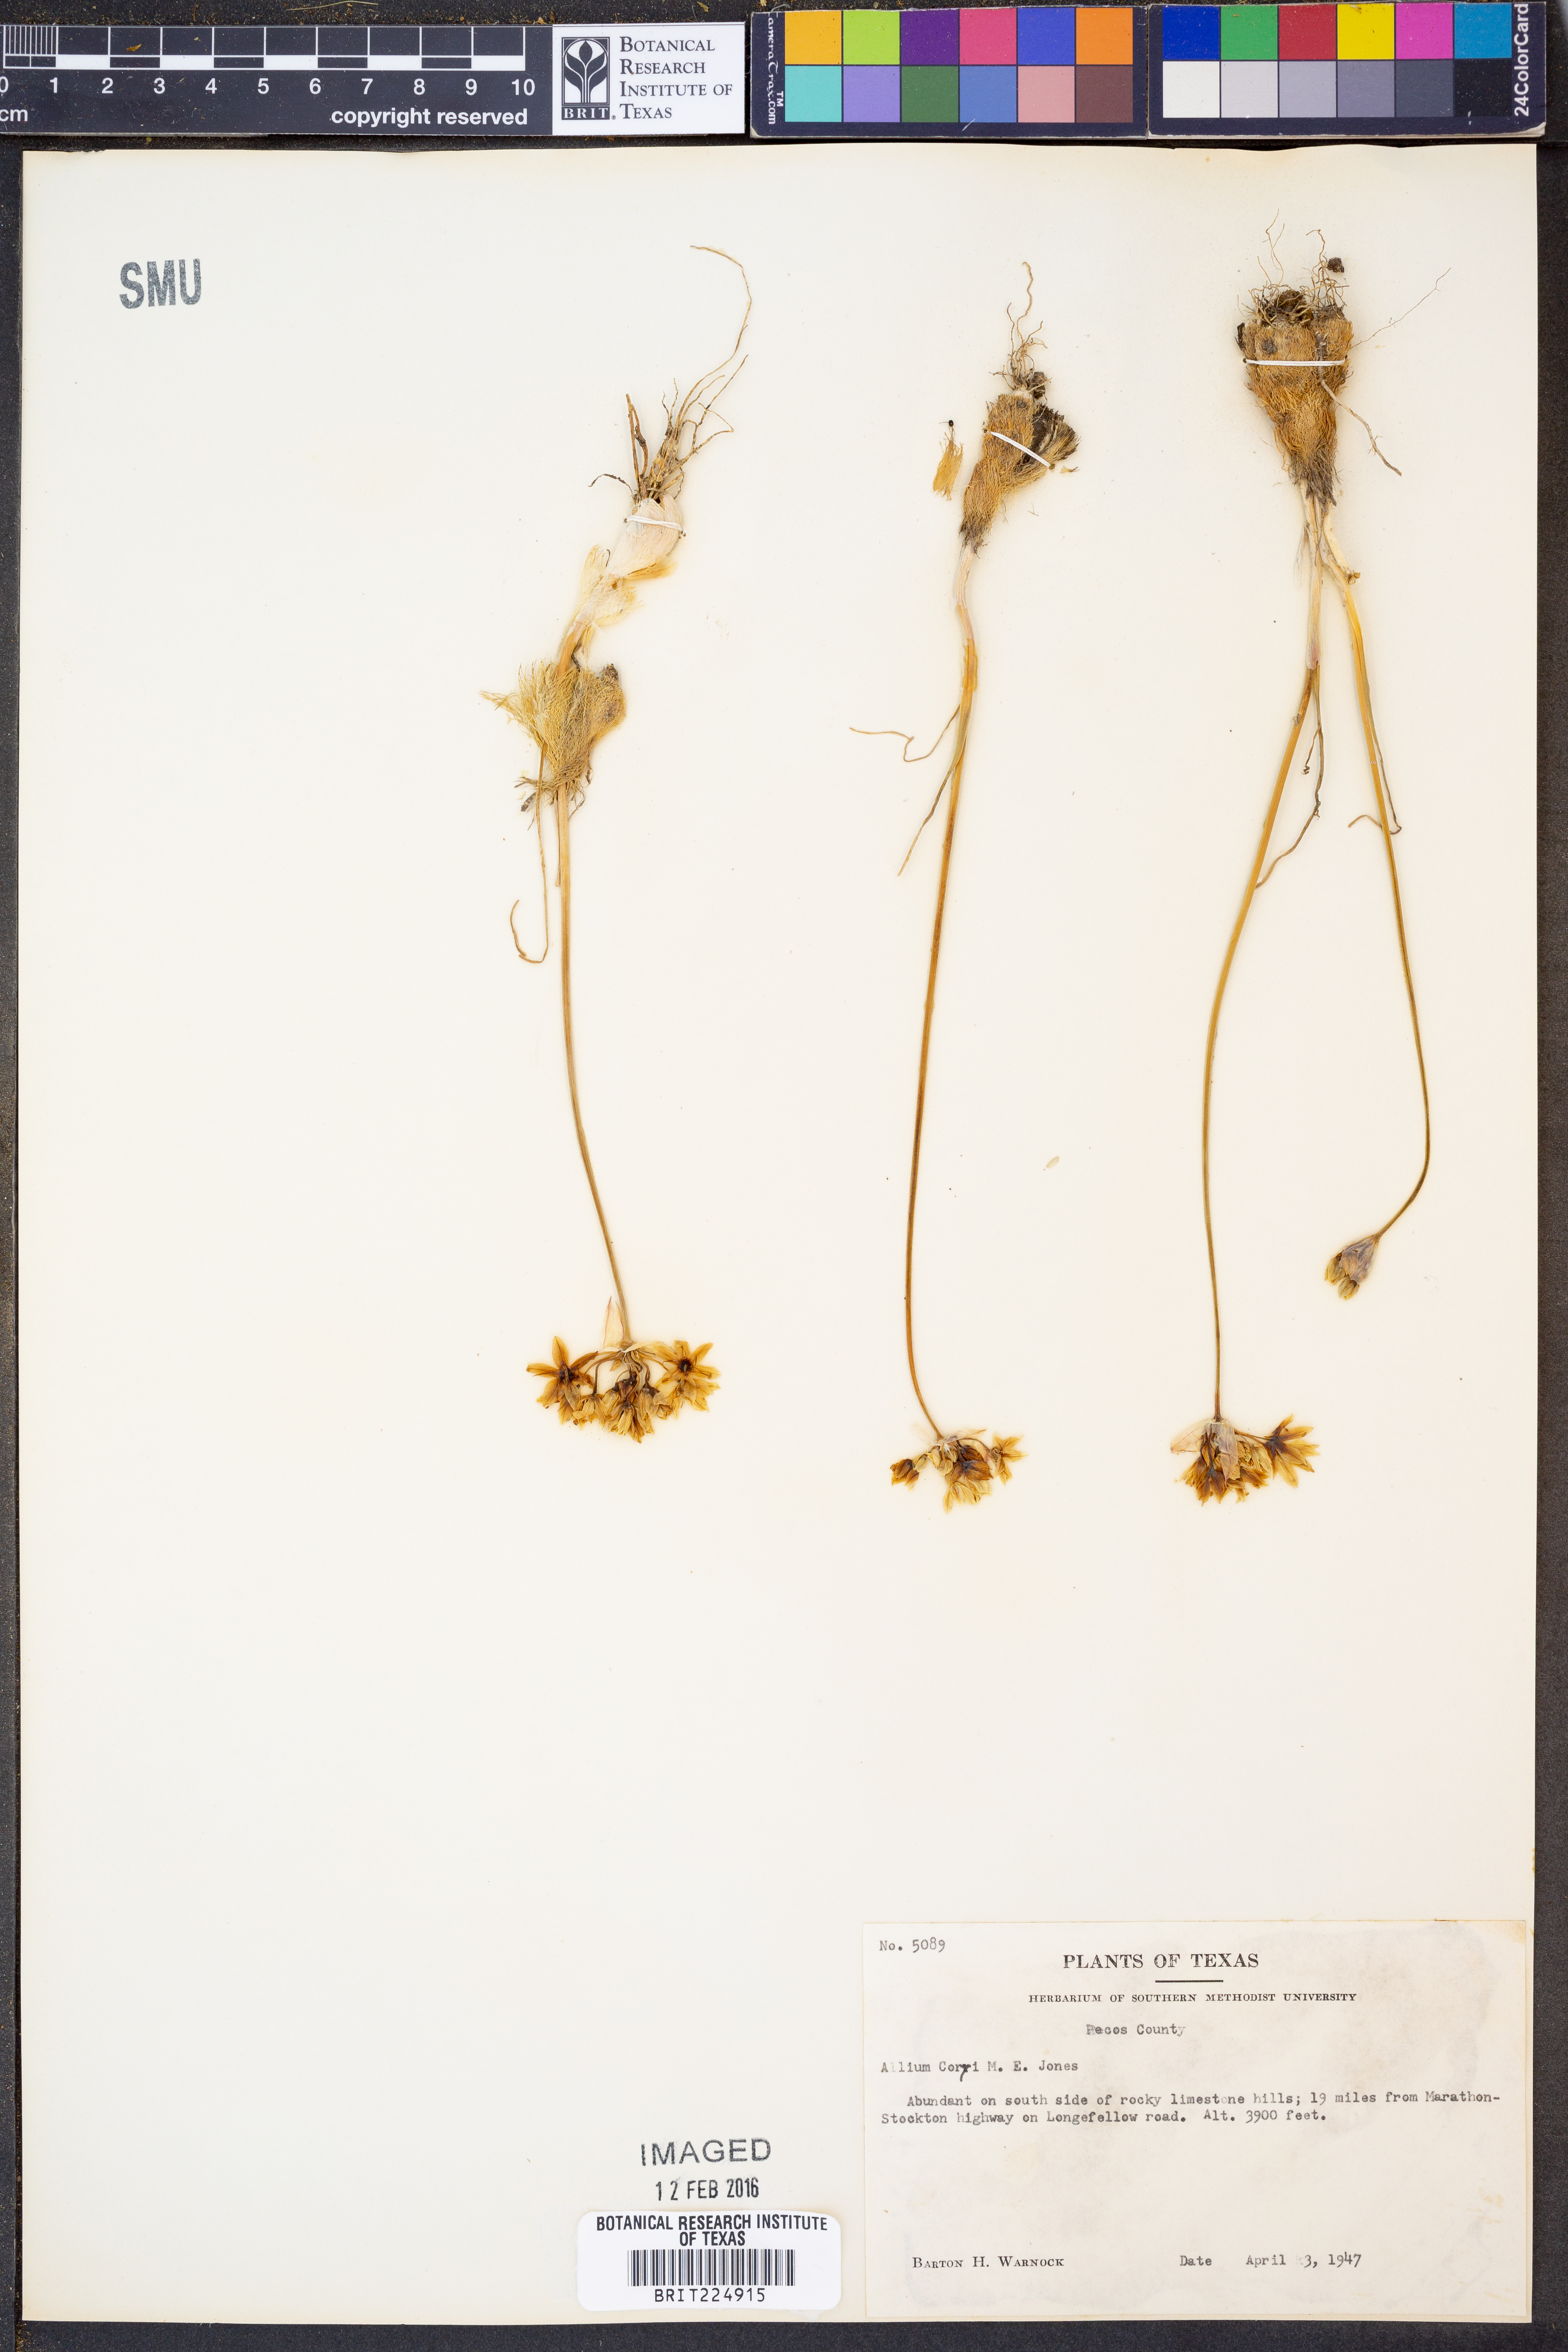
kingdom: Plantae
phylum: Tracheophyta
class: Liliopsida
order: Asparagales
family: Amaryllidaceae
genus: Allium
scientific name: Allium coryi
